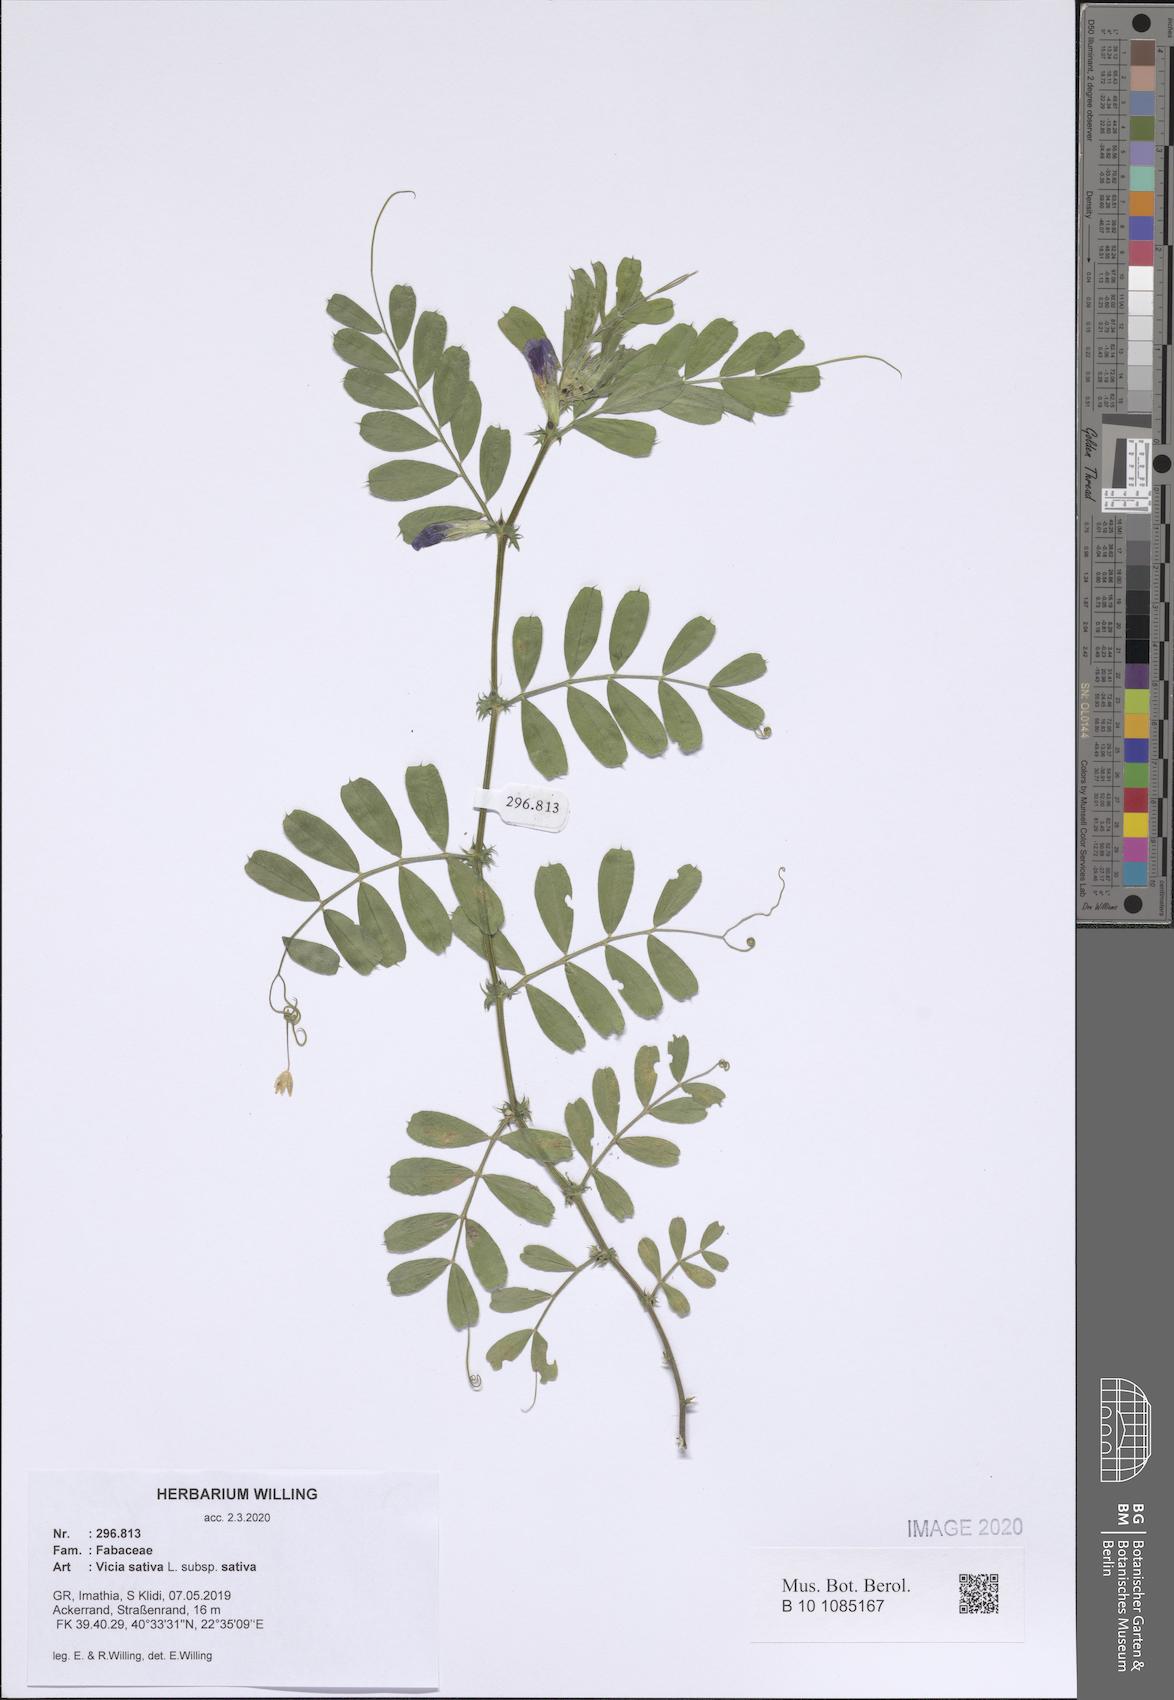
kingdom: Plantae
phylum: Tracheophyta
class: Magnoliopsida
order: Fabales
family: Fabaceae
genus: Vicia
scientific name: Vicia sativa
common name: Garden vetch
